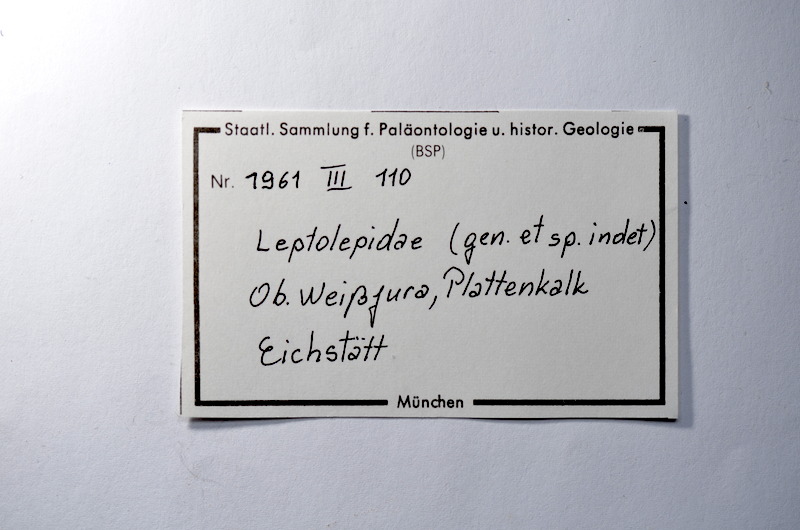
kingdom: Animalia
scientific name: Animalia
